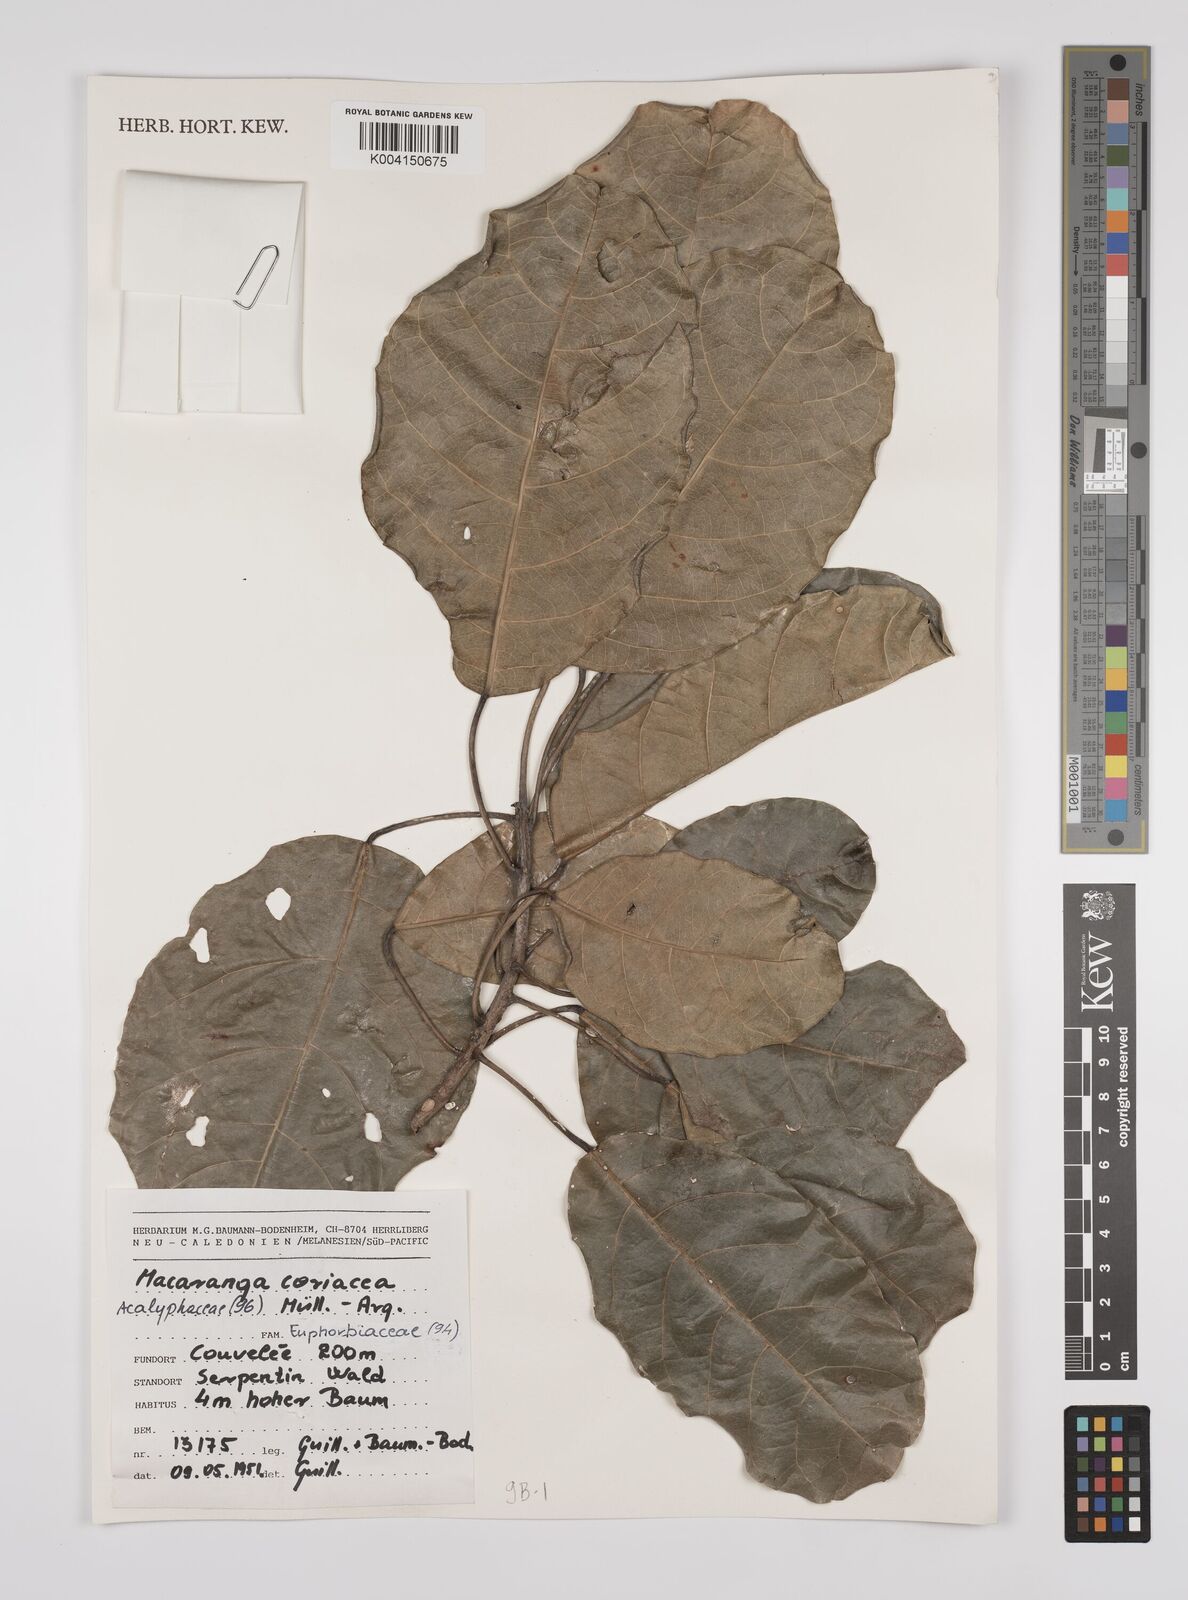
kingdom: Plantae
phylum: Tracheophyta
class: Magnoliopsida
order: Malpighiales
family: Euphorbiaceae
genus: Macaranga
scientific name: Macaranga coriacea
